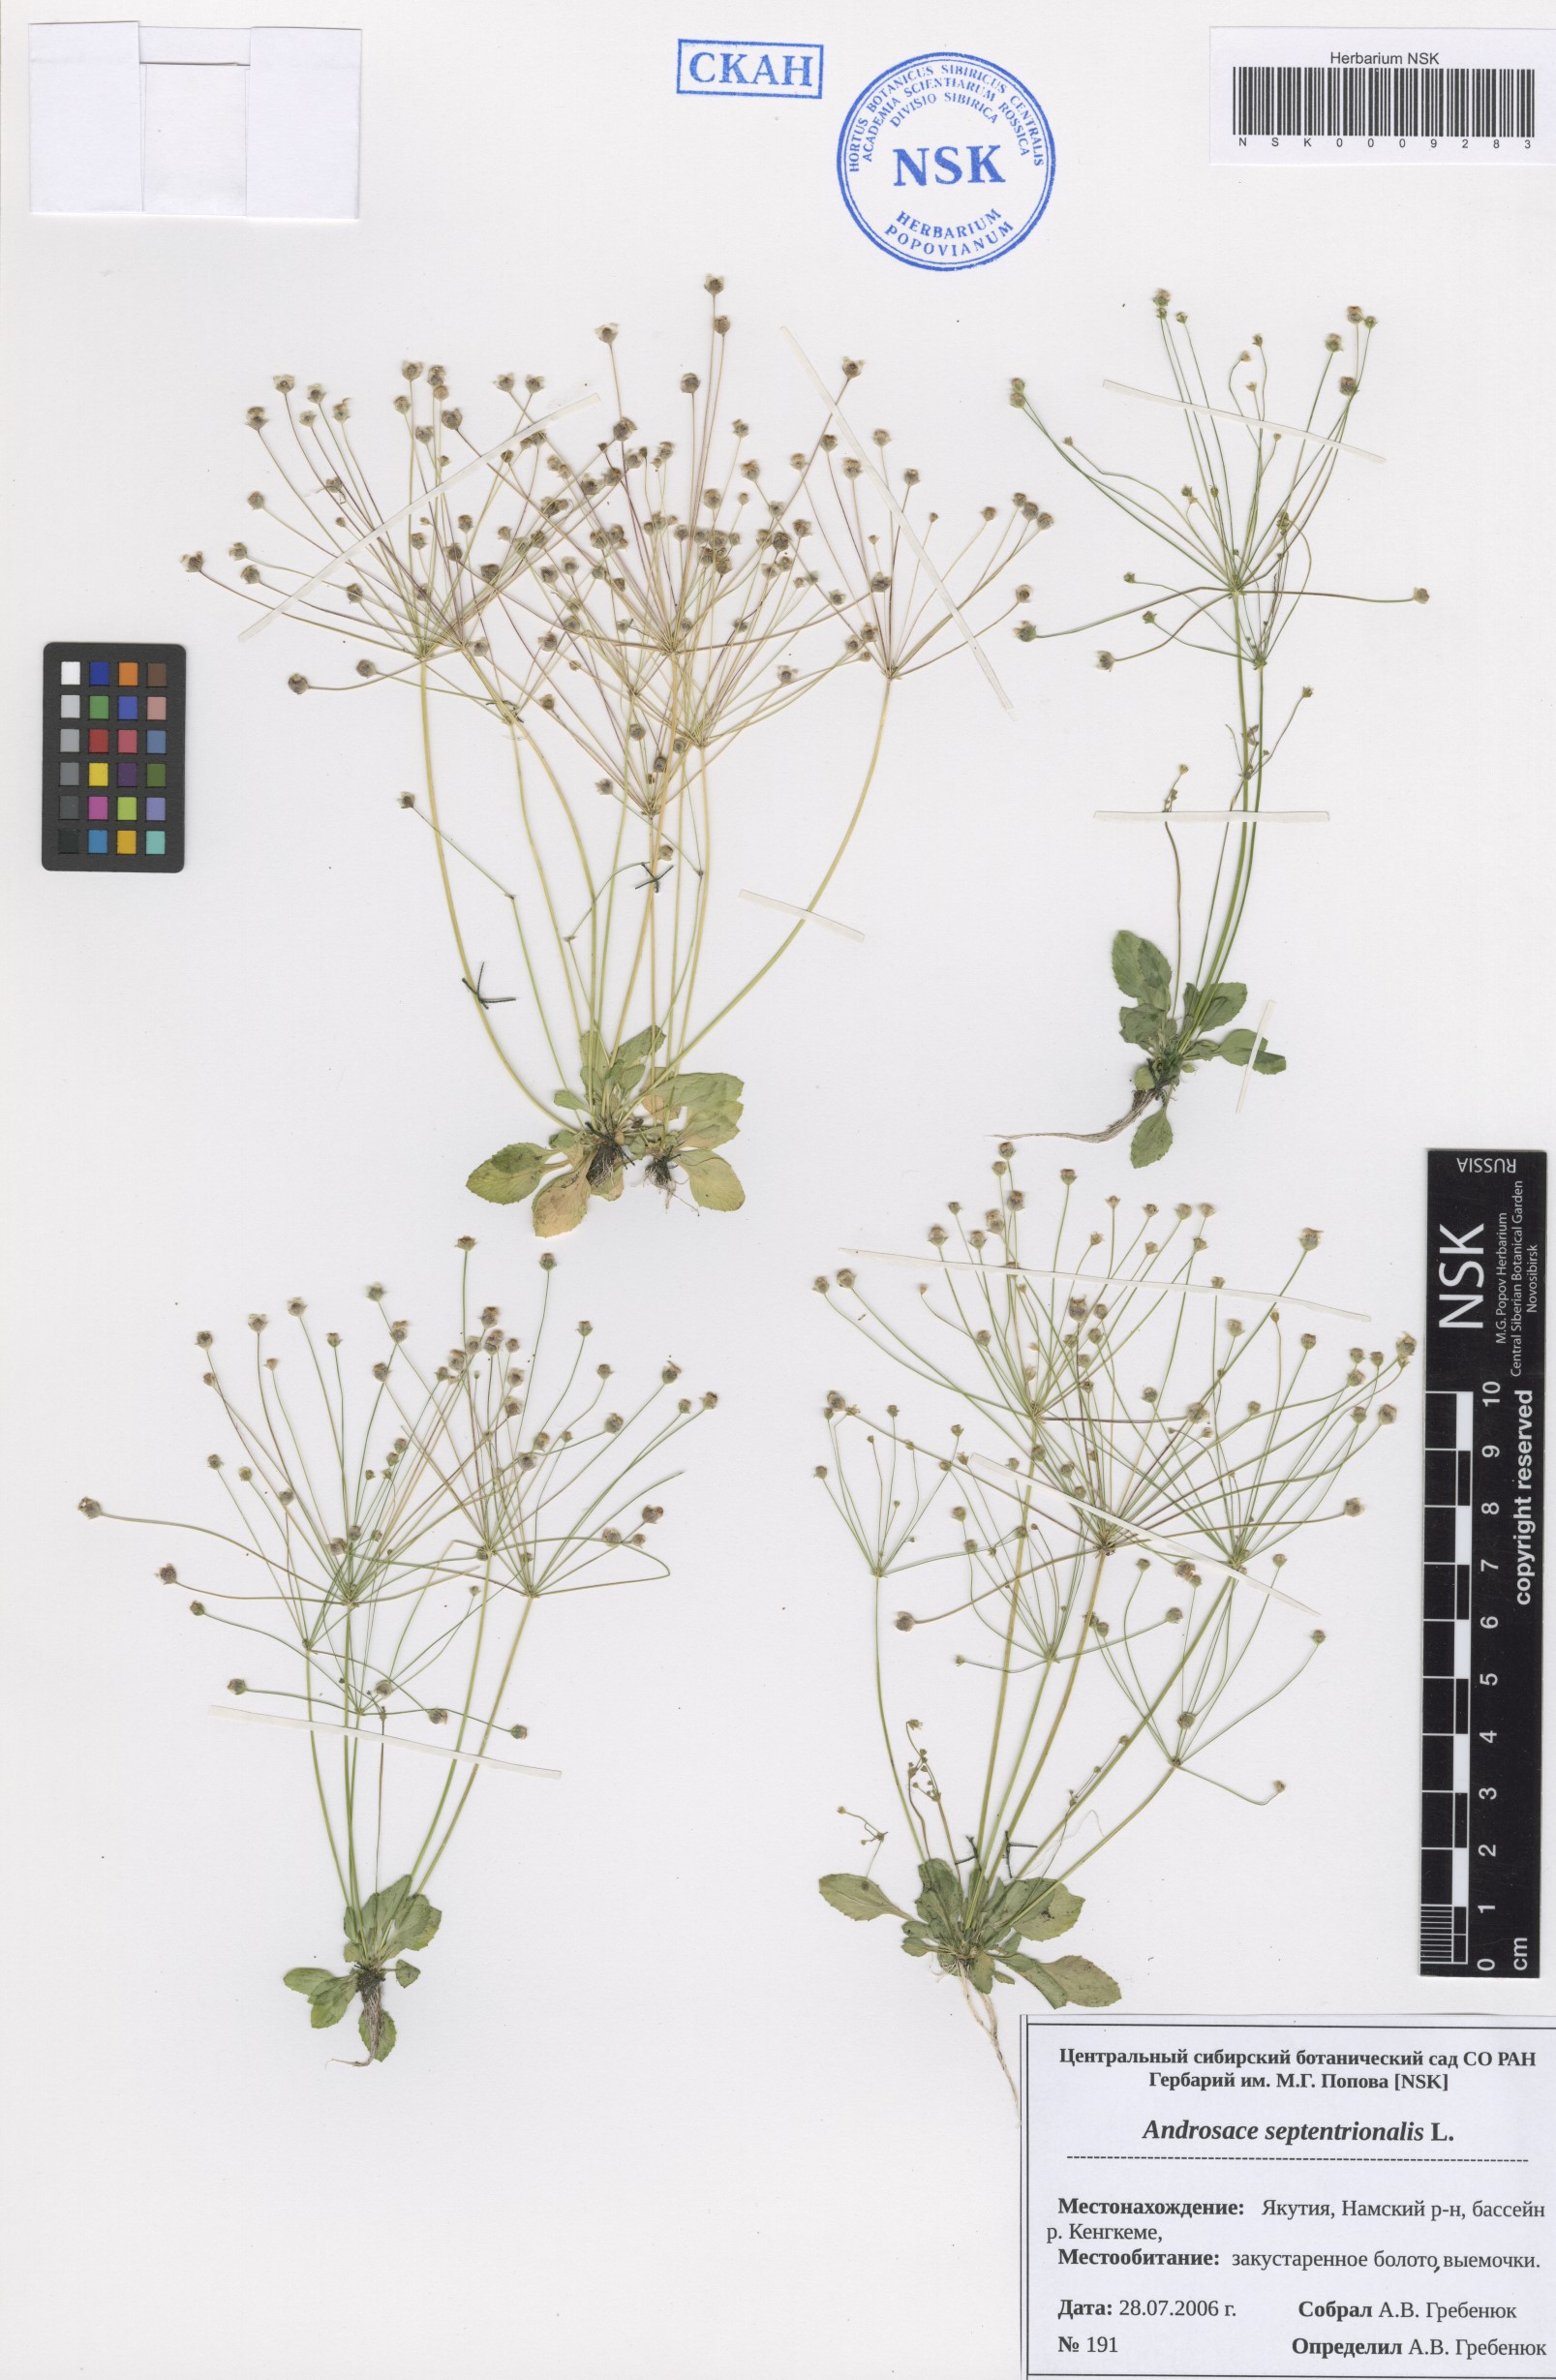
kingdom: Plantae
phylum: Tracheophyta
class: Magnoliopsida
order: Ericales
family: Primulaceae
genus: Androsace
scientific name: Androsace septentrionalis
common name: Hairy northern fairy-candelabra
